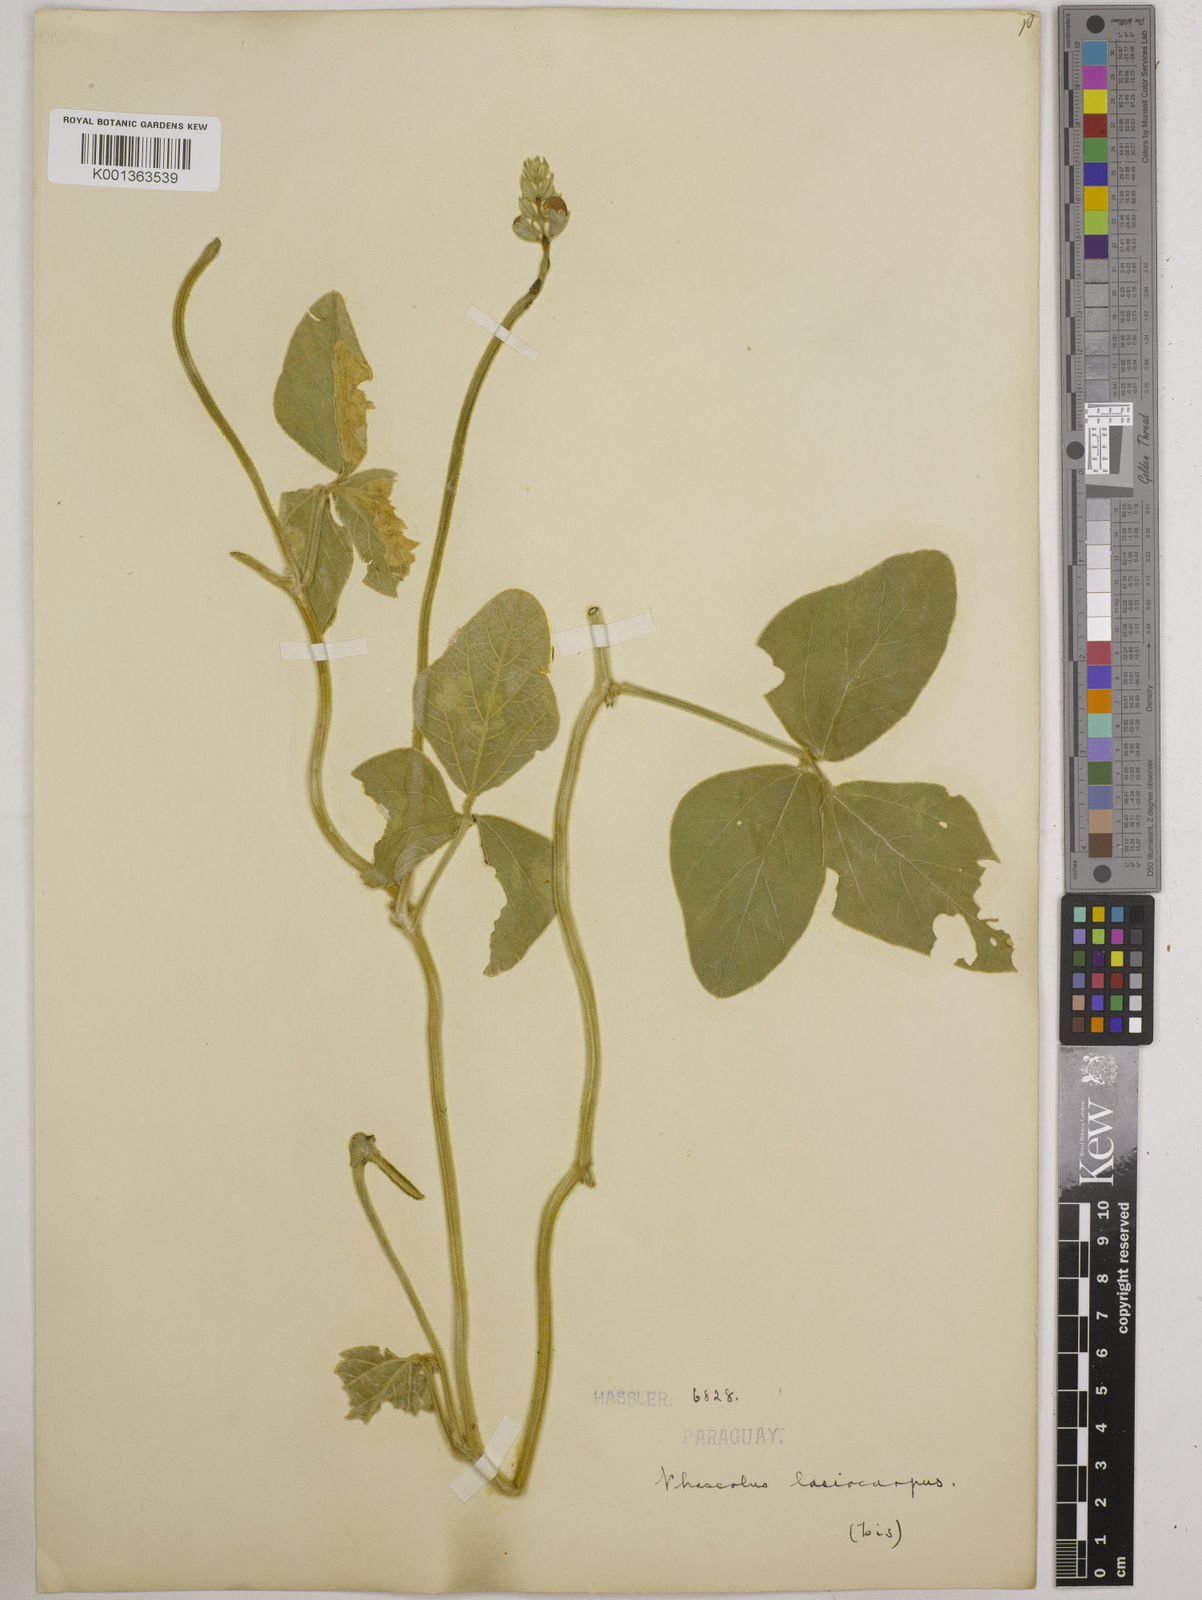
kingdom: Plantae
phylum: Tracheophyta
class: Magnoliopsida
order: Fabales
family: Fabaceae
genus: Vigna
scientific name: Vigna lasiocarpa
